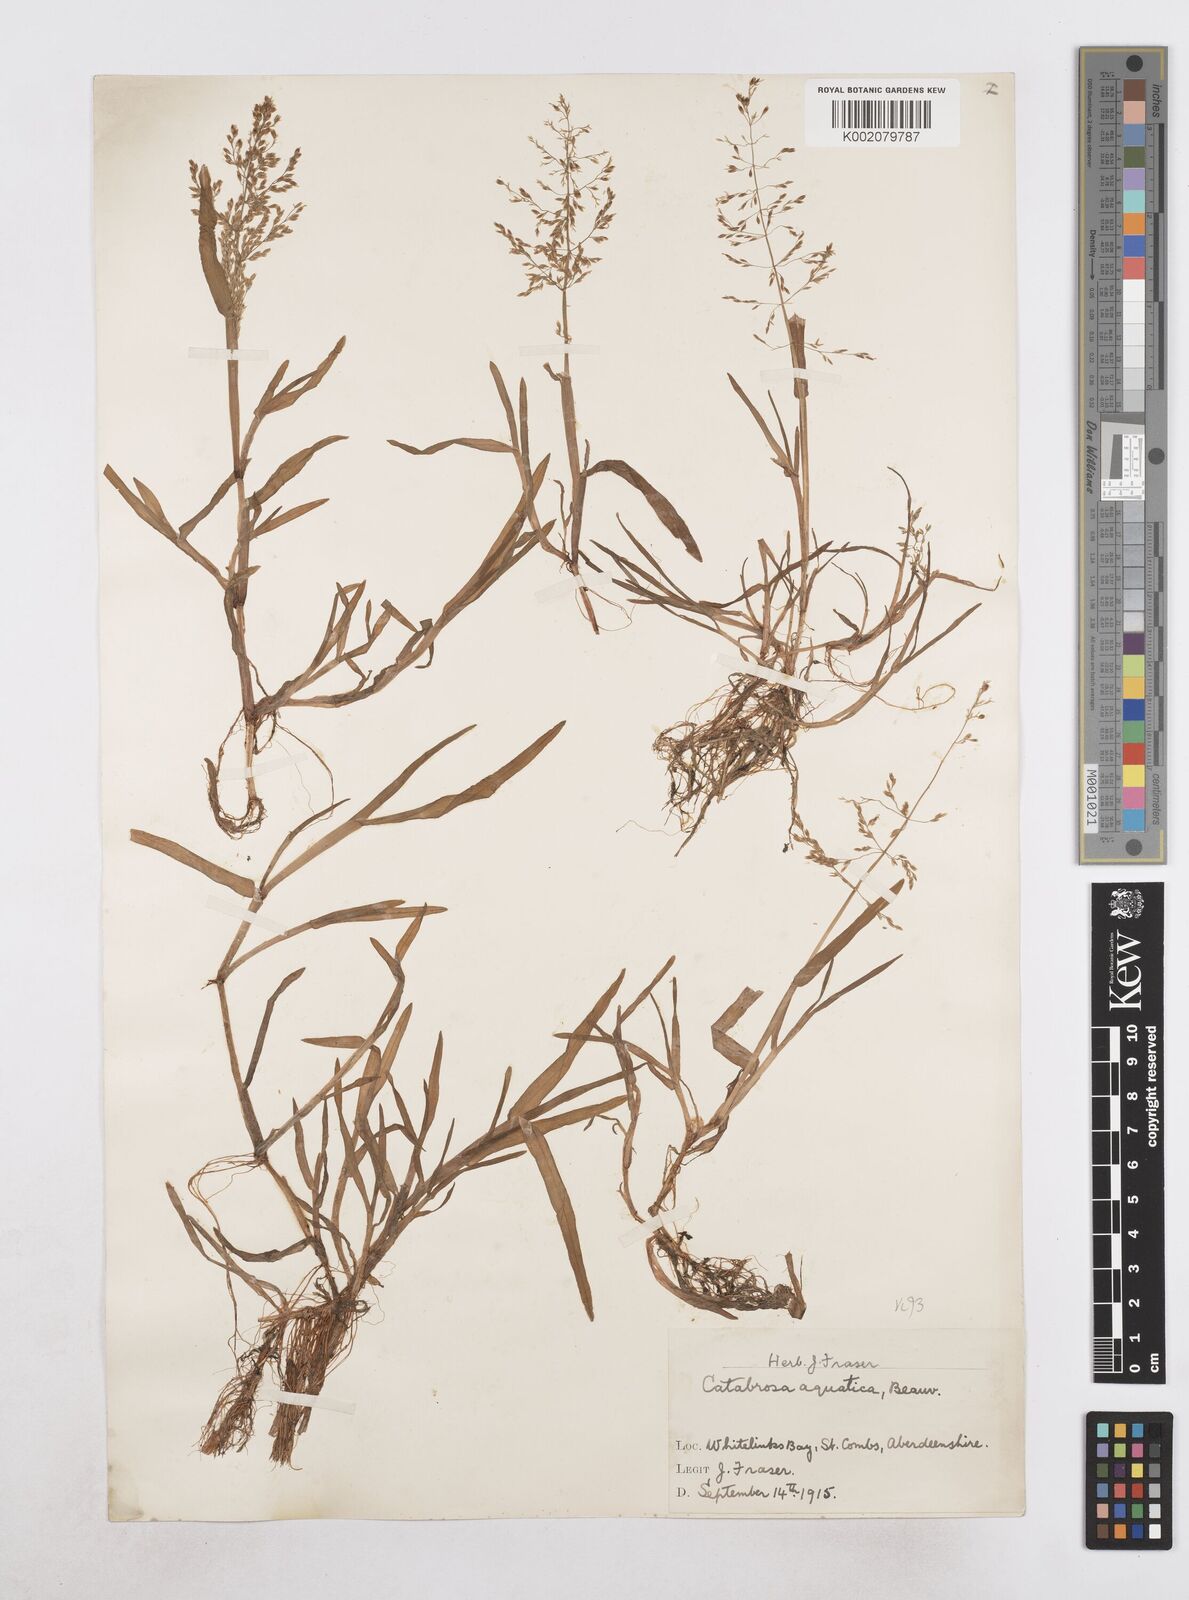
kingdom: Plantae
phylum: Tracheophyta
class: Liliopsida
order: Poales
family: Poaceae
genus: Catabrosa
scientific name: Catabrosa aquatica
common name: Whorl-grass
